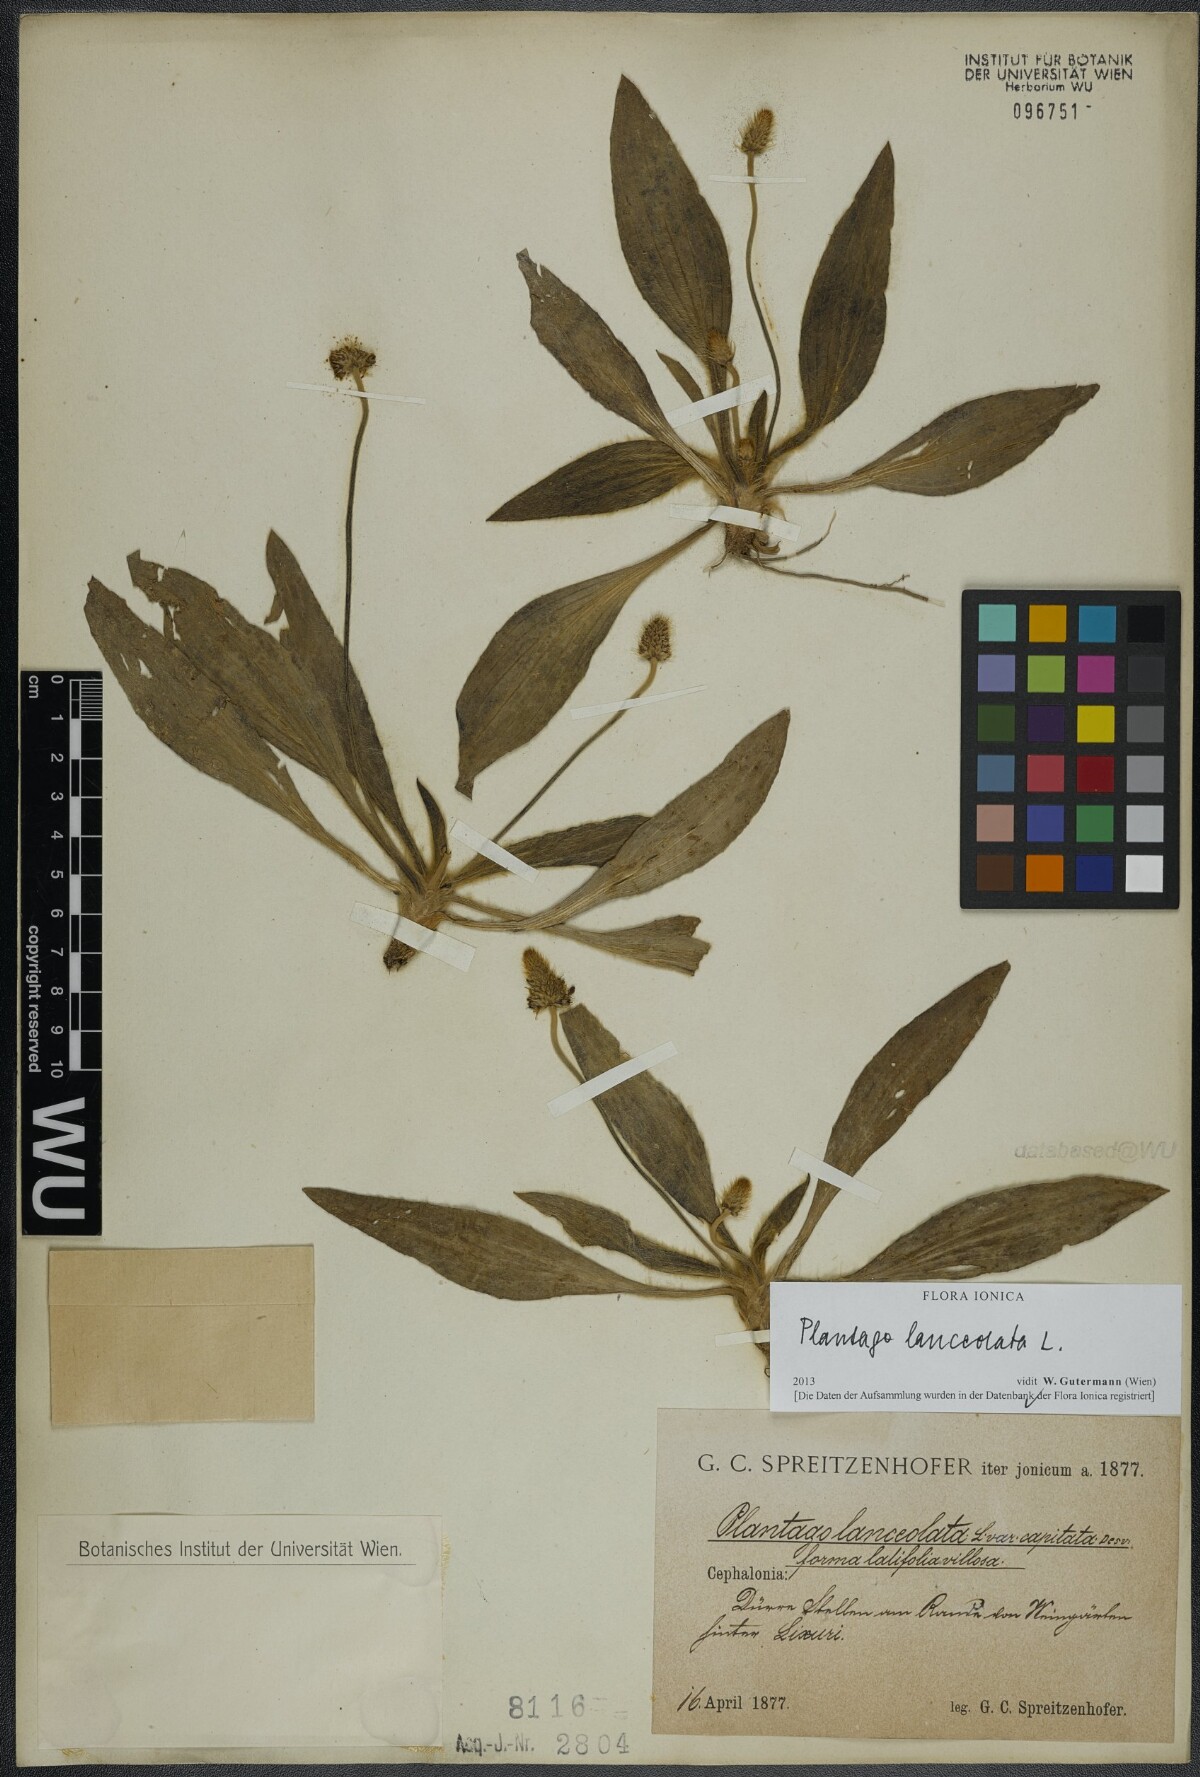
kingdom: Plantae
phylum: Tracheophyta
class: Magnoliopsida
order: Lamiales
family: Plantaginaceae
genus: Plantago
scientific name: Plantago lanceolata
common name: Ribwort plantain
